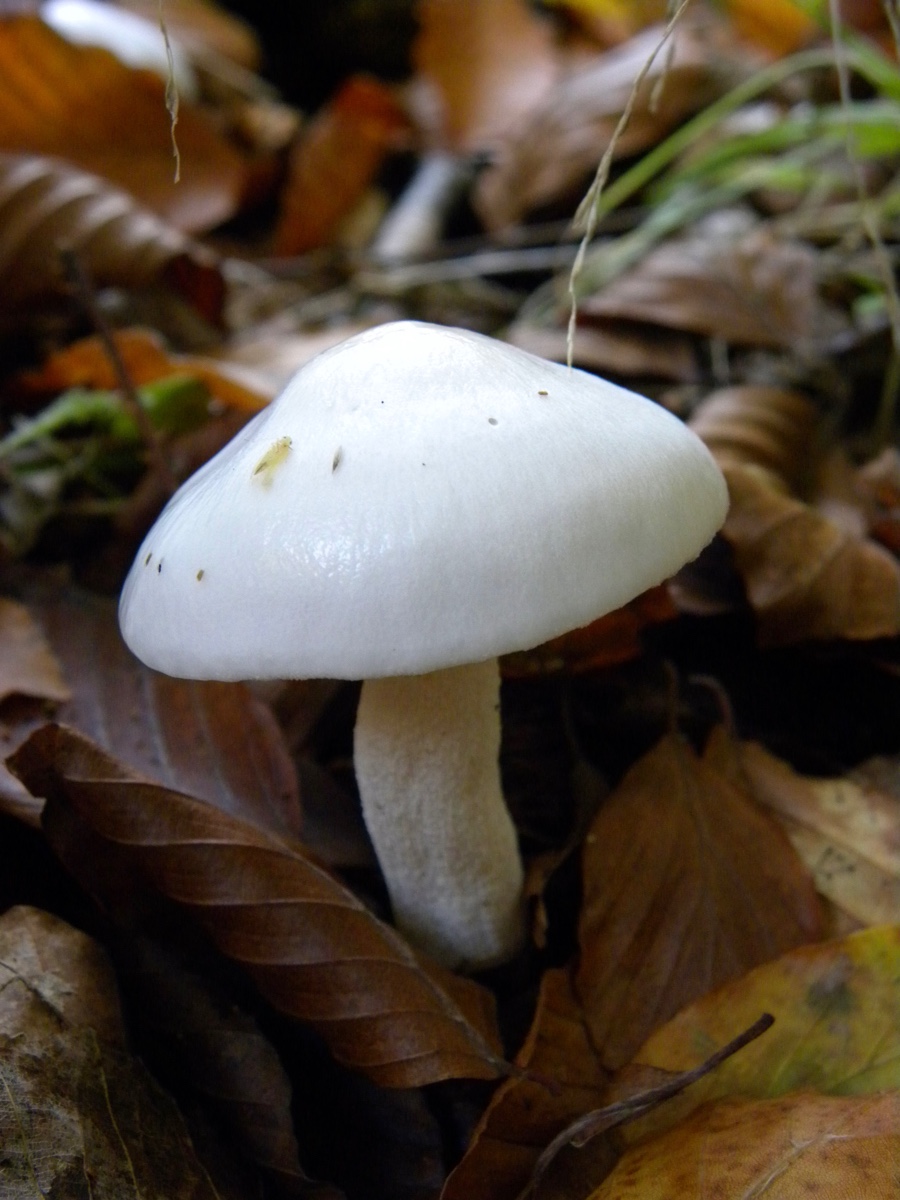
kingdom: Fungi
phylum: Basidiomycota
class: Agaricomycetes
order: Agaricales
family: Hygrophoraceae
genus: Hygrophorus
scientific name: Hygrophorus eburneus
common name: elfenbens-sneglehat
